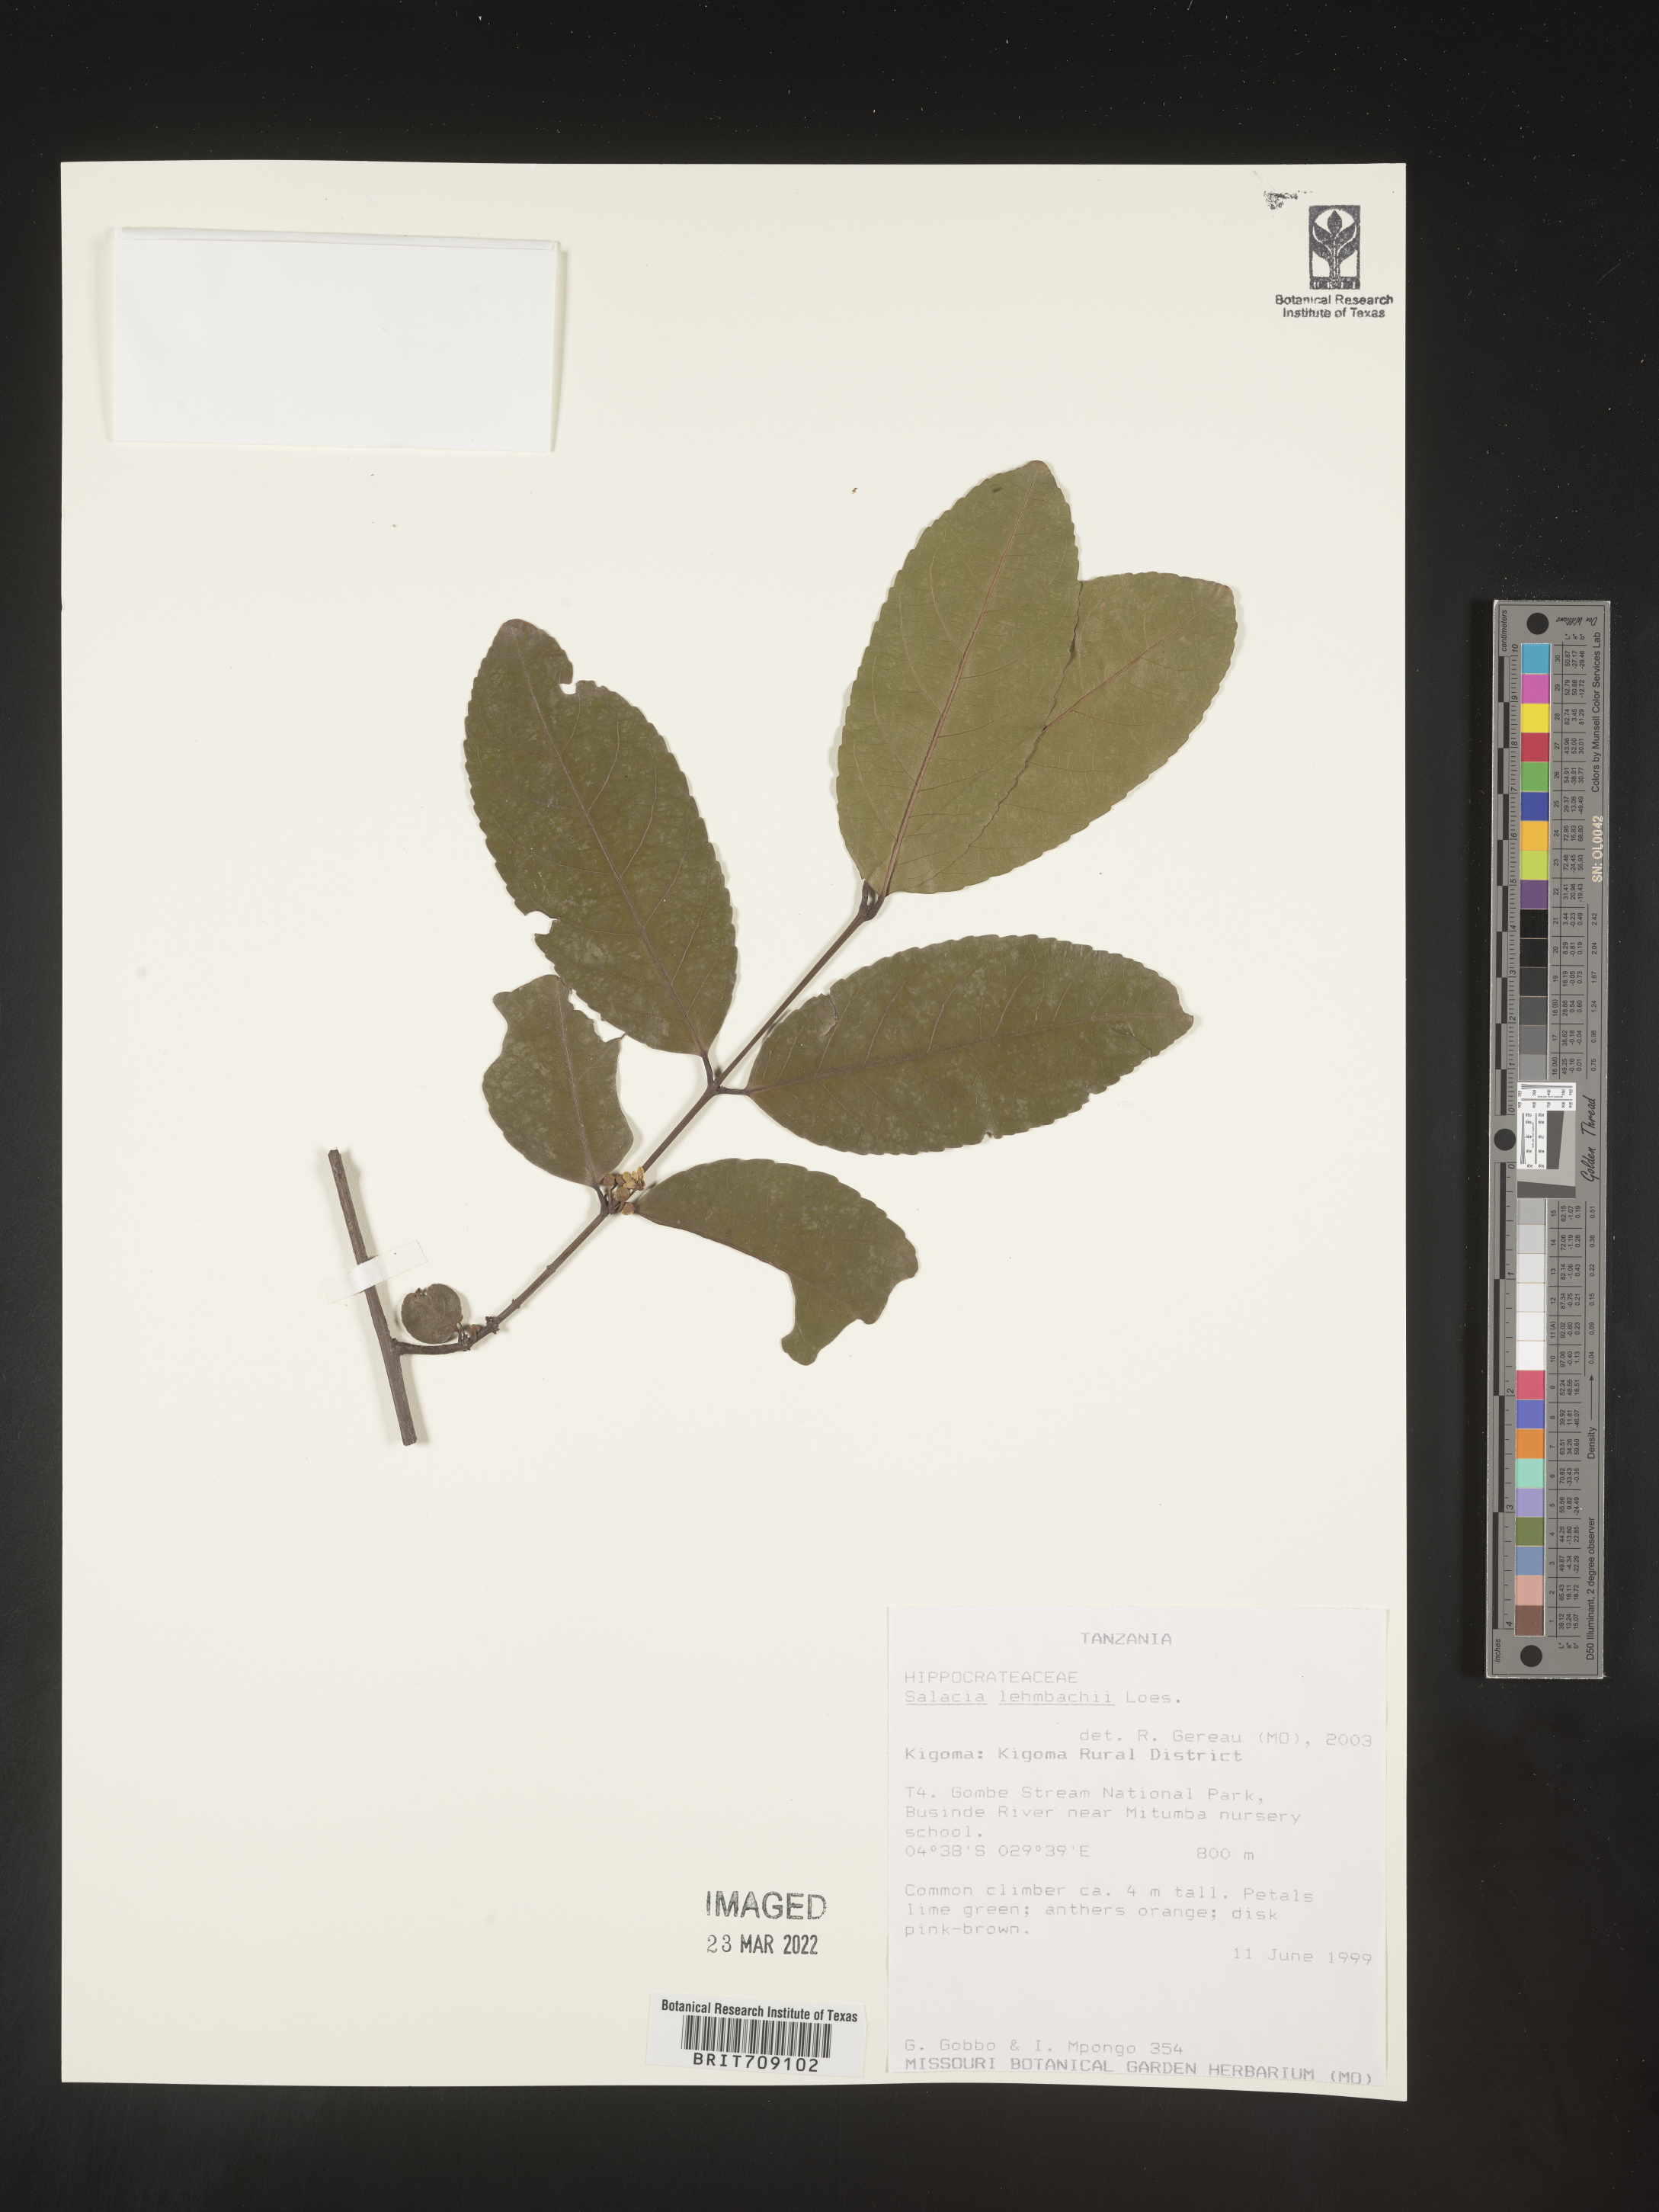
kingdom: Plantae
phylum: Tracheophyta
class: Magnoliopsida
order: Celastrales
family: Celastraceae
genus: Salacia
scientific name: Salacia
